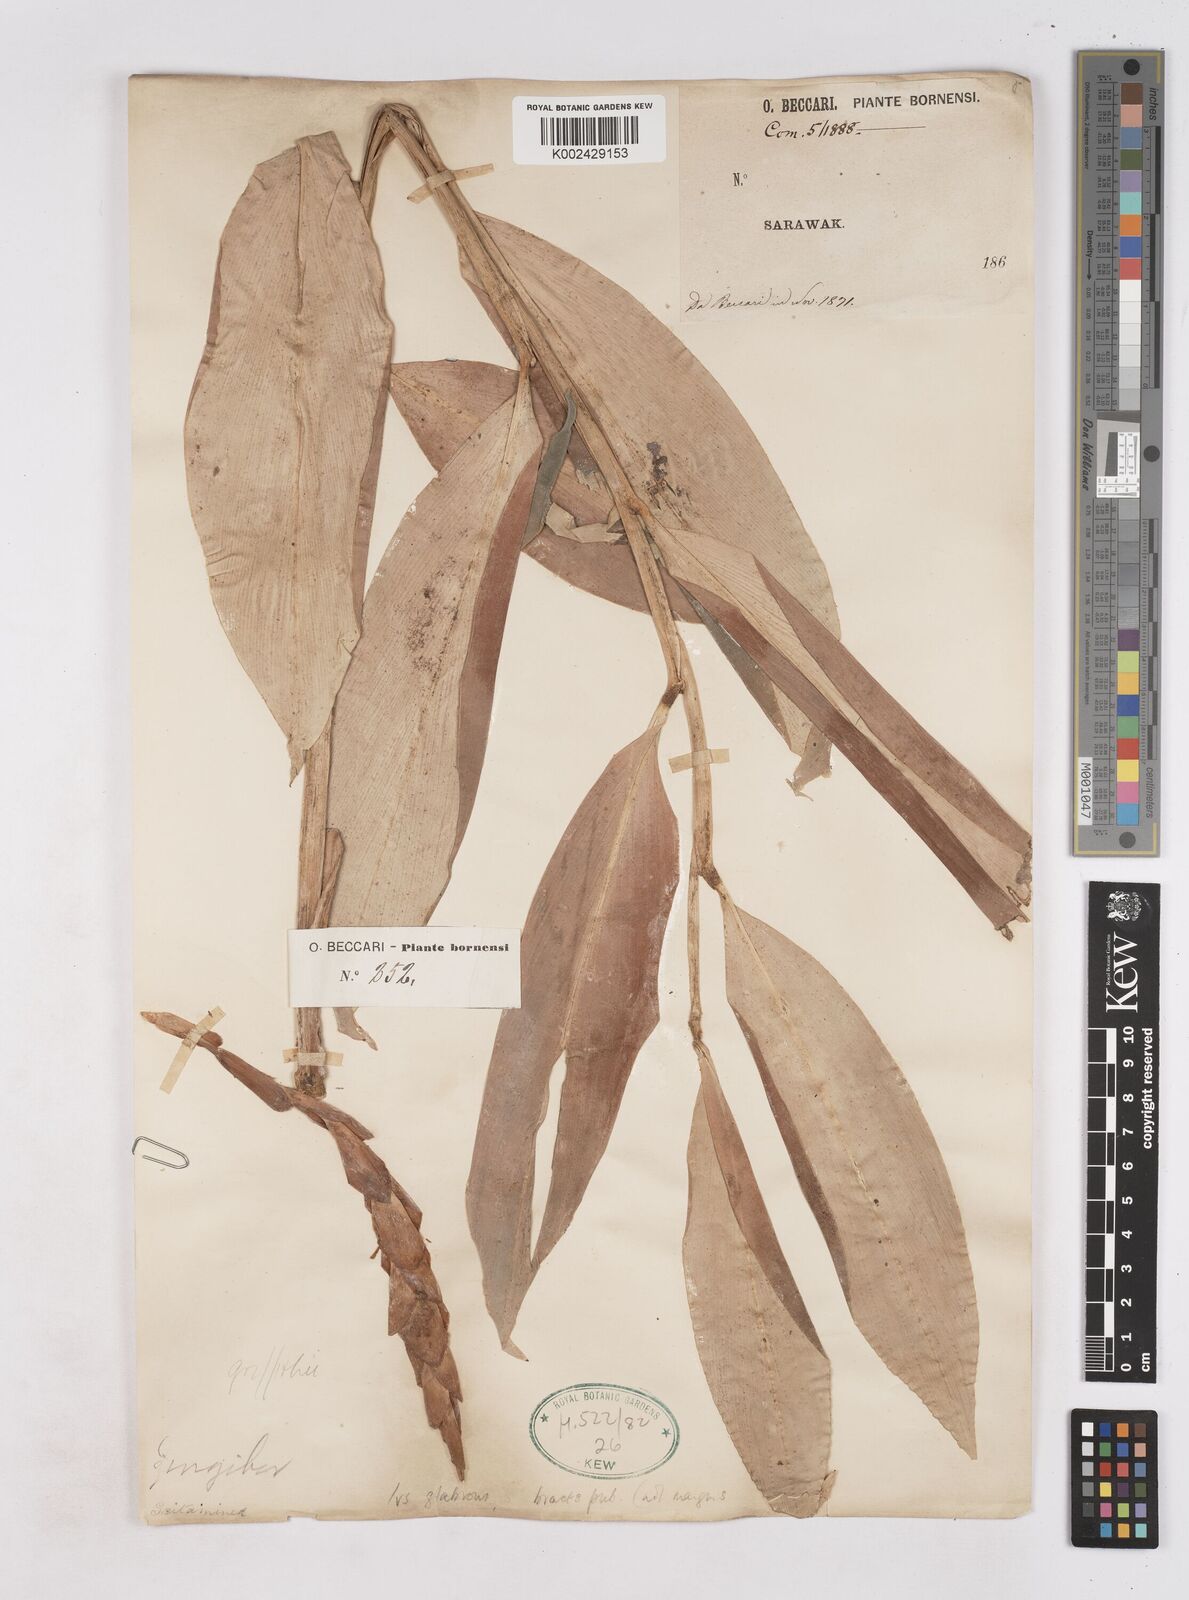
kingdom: Plantae
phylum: Tracheophyta
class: Liliopsida
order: Zingiberales
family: Zingiberaceae
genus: Zingiber
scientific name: Zingiber
